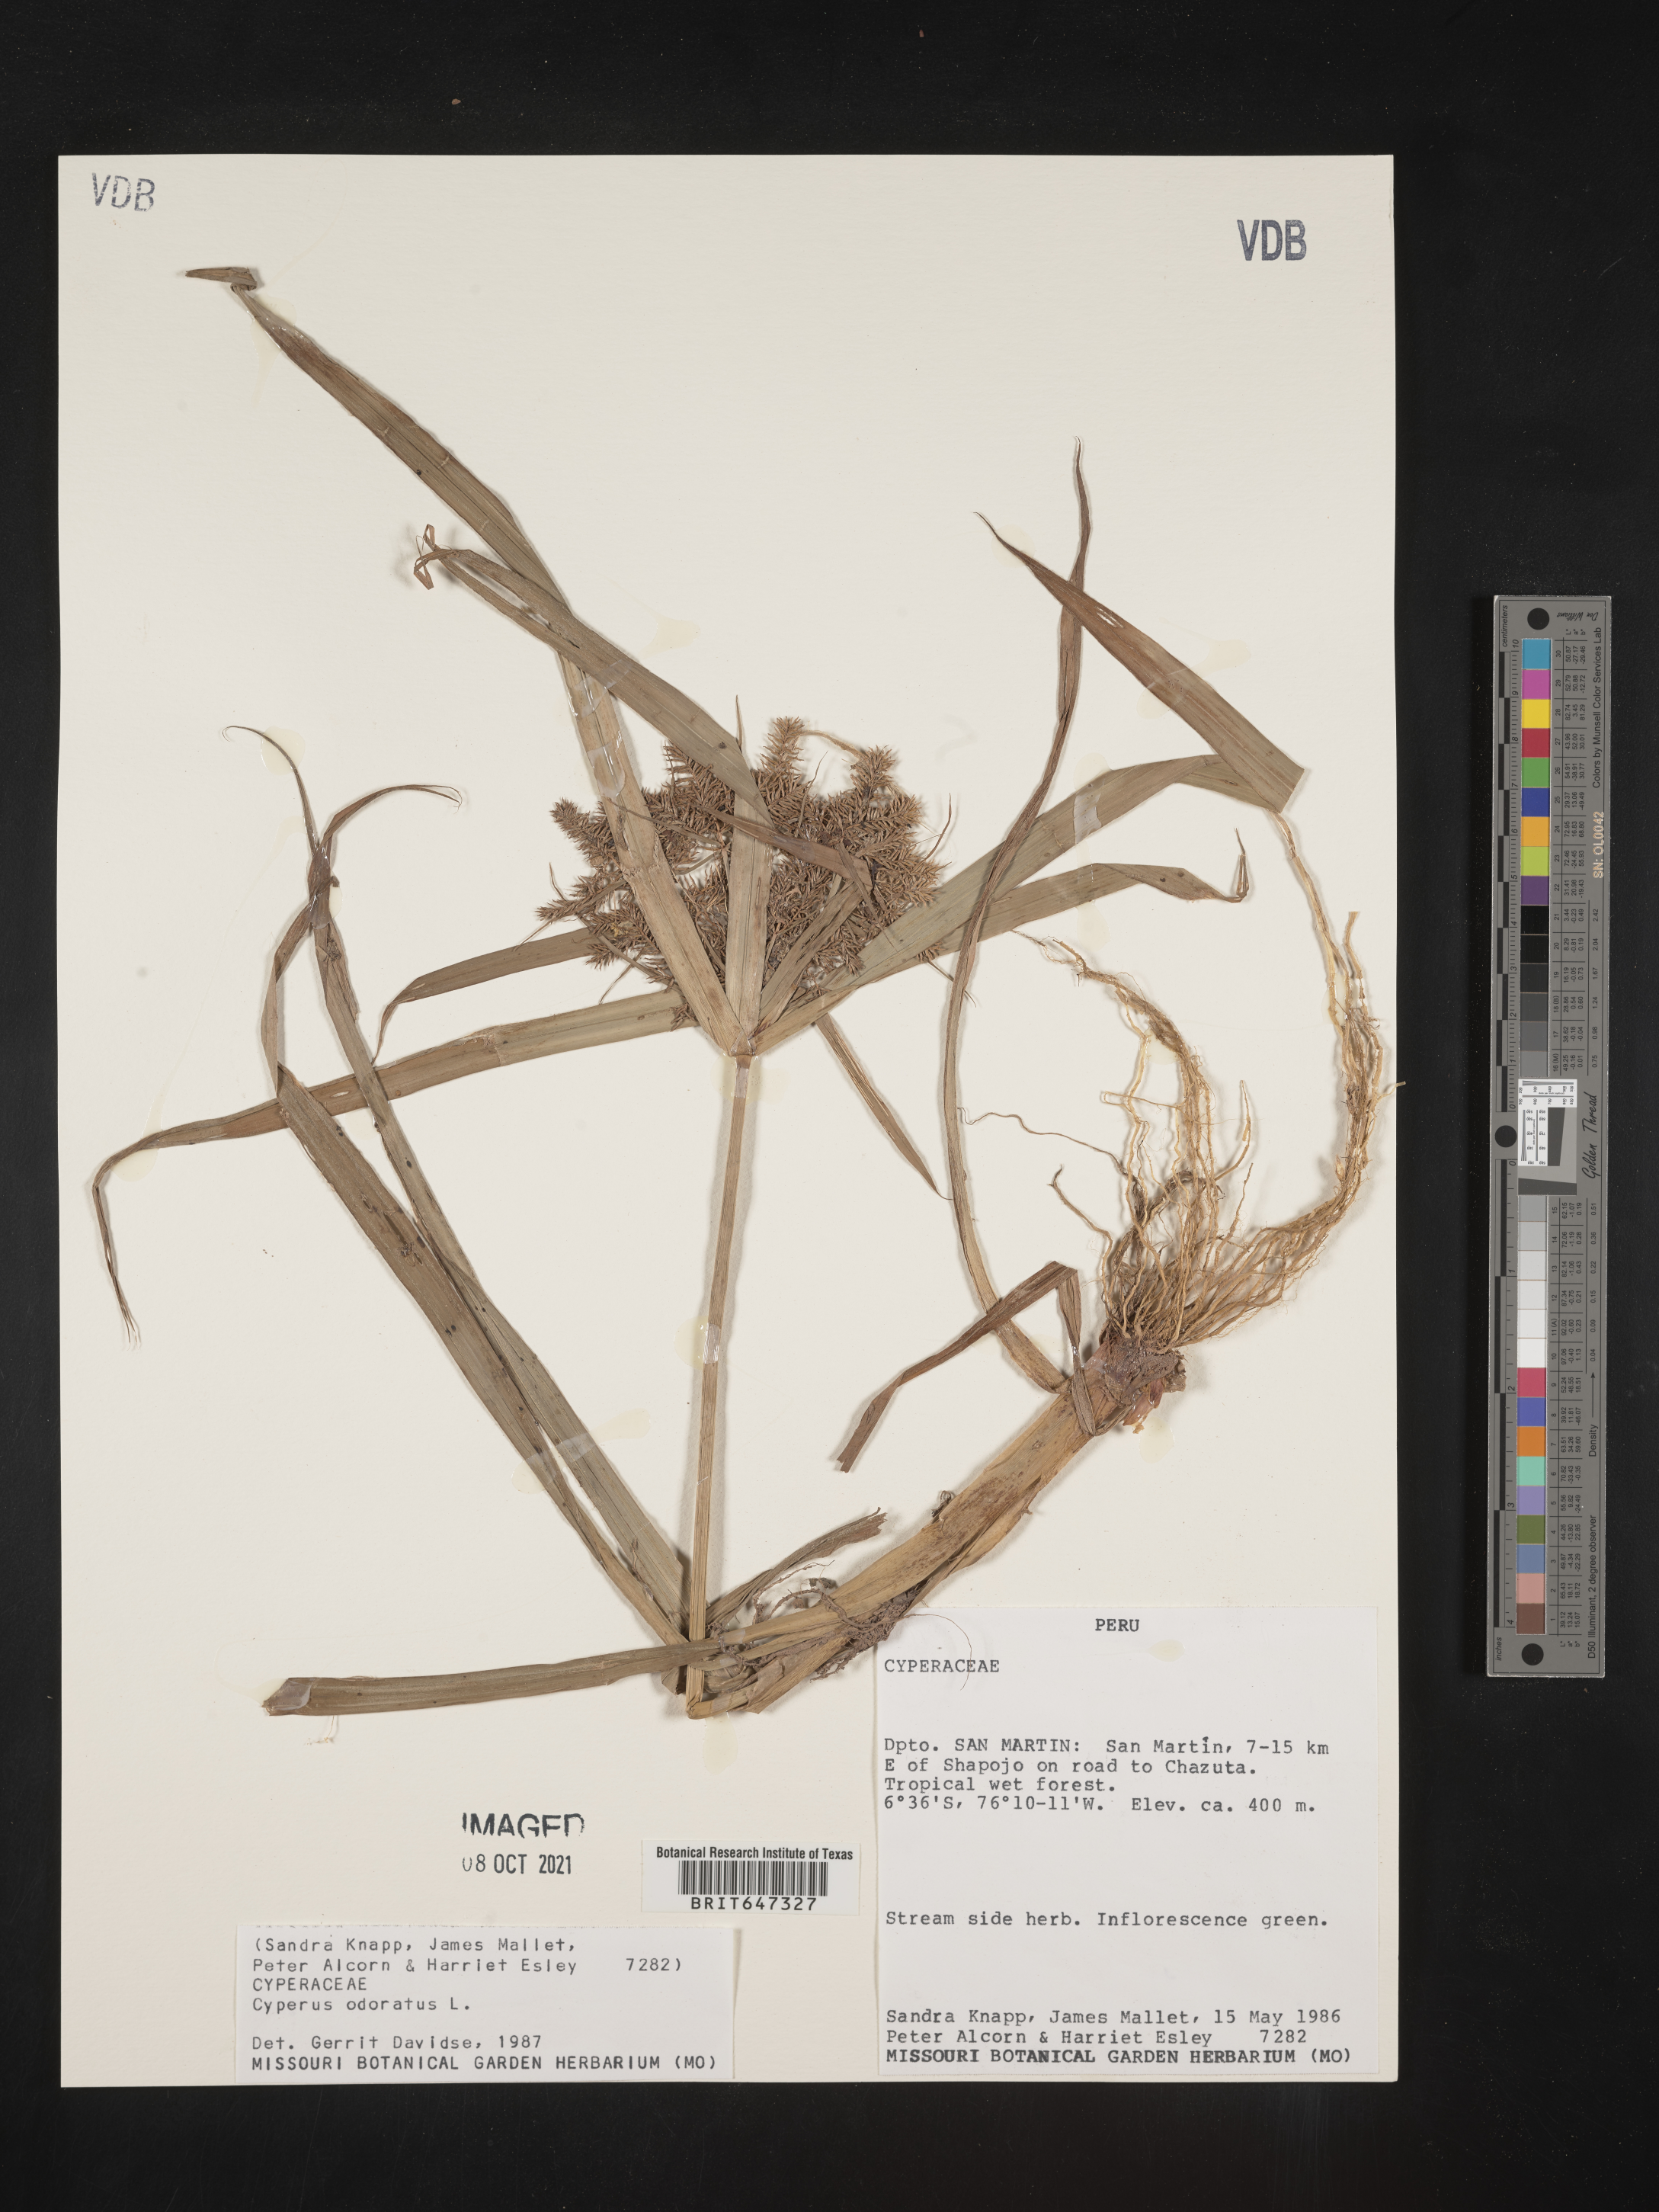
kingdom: Plantae
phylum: Tracheophyta
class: Liliopsida
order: Poales
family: Cyperaceae
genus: Cyperus
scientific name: Cyperus odoratus
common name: Fragrant flatsedge
